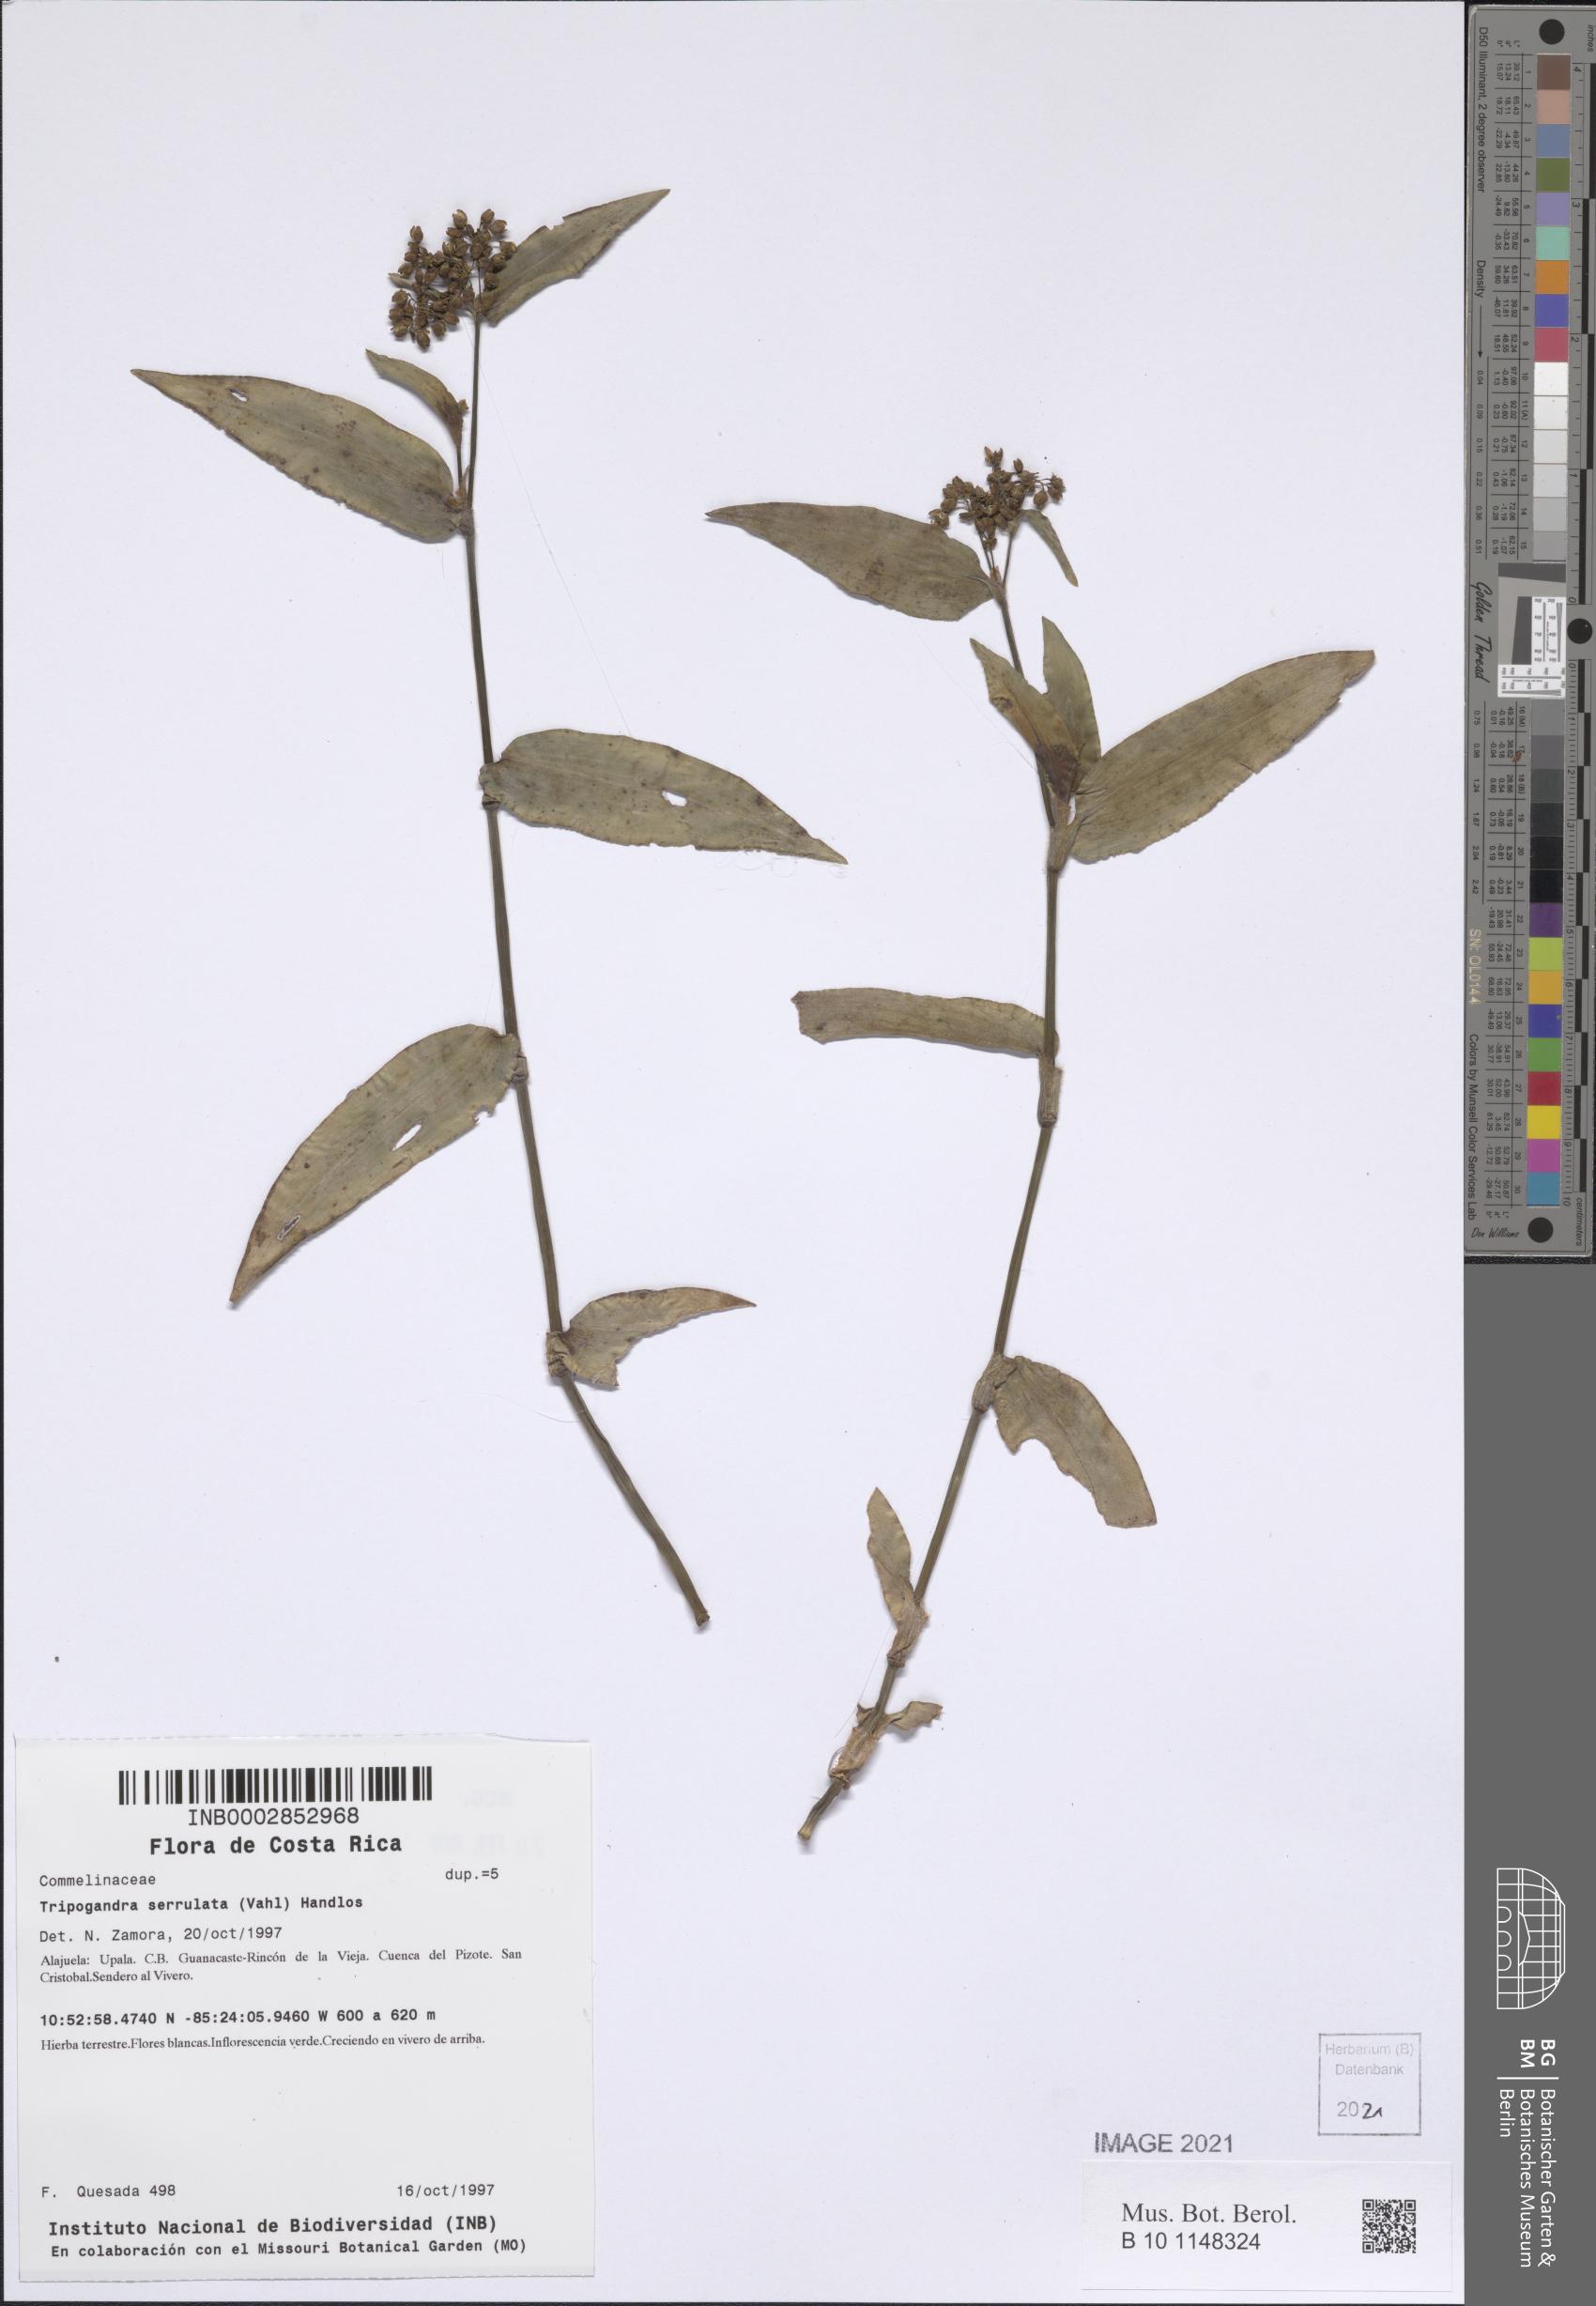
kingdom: Plantae
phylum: Tracheophyta
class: Liliopsida
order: Commelinales
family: Commelinaceae
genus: Callisia
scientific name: Callisia serrulata
